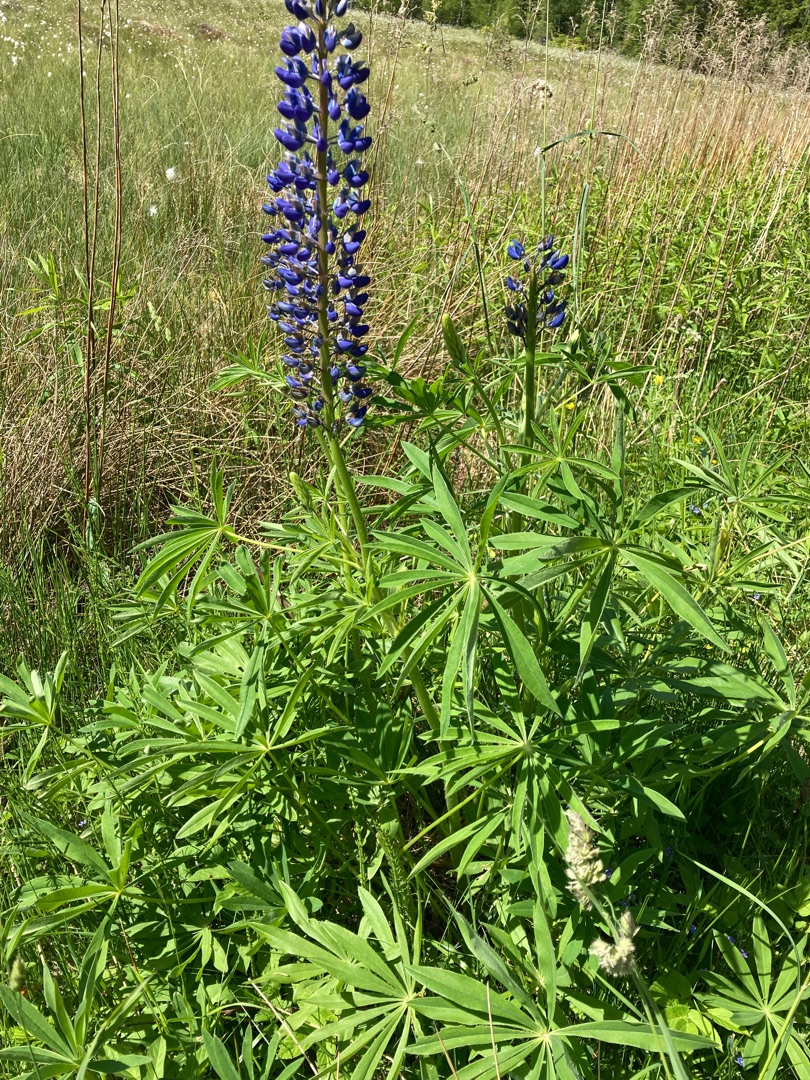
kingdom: Plantae
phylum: Tracheophyta
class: Magnoliopsida
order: Fabales
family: Fabaceae
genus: Lupinus
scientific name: Lupinus polyphyllus
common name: Mangebladet lupin
